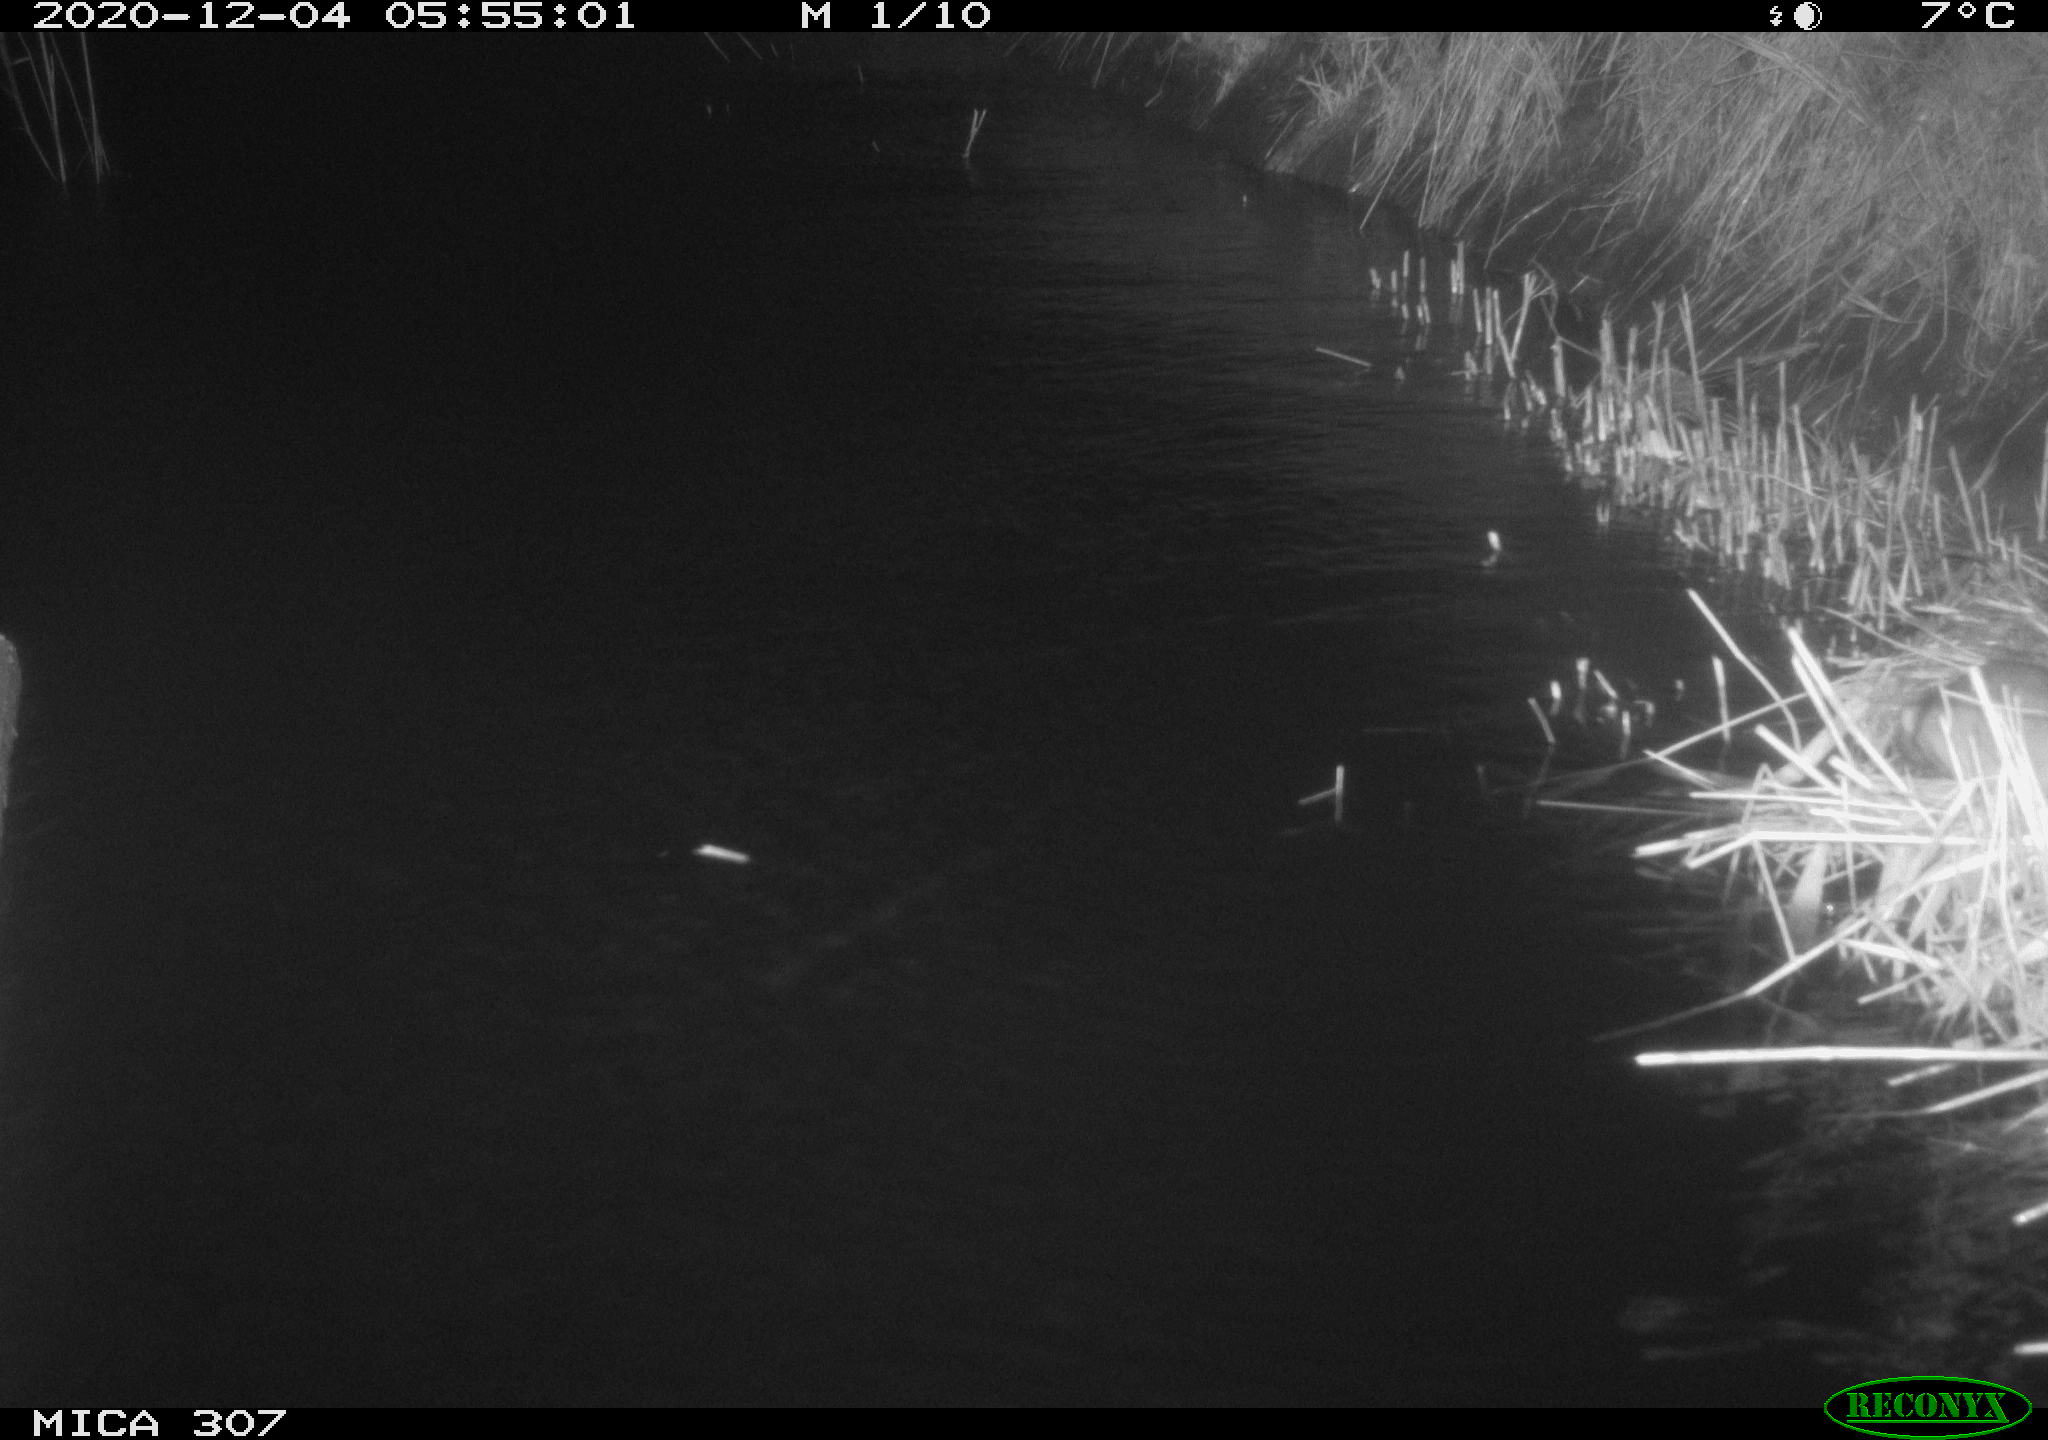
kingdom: Animalia
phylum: Chordata
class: Mammalia
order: Rodentia
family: Muridae
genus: Rattus
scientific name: Rattus norvegicus
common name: Brown rat
